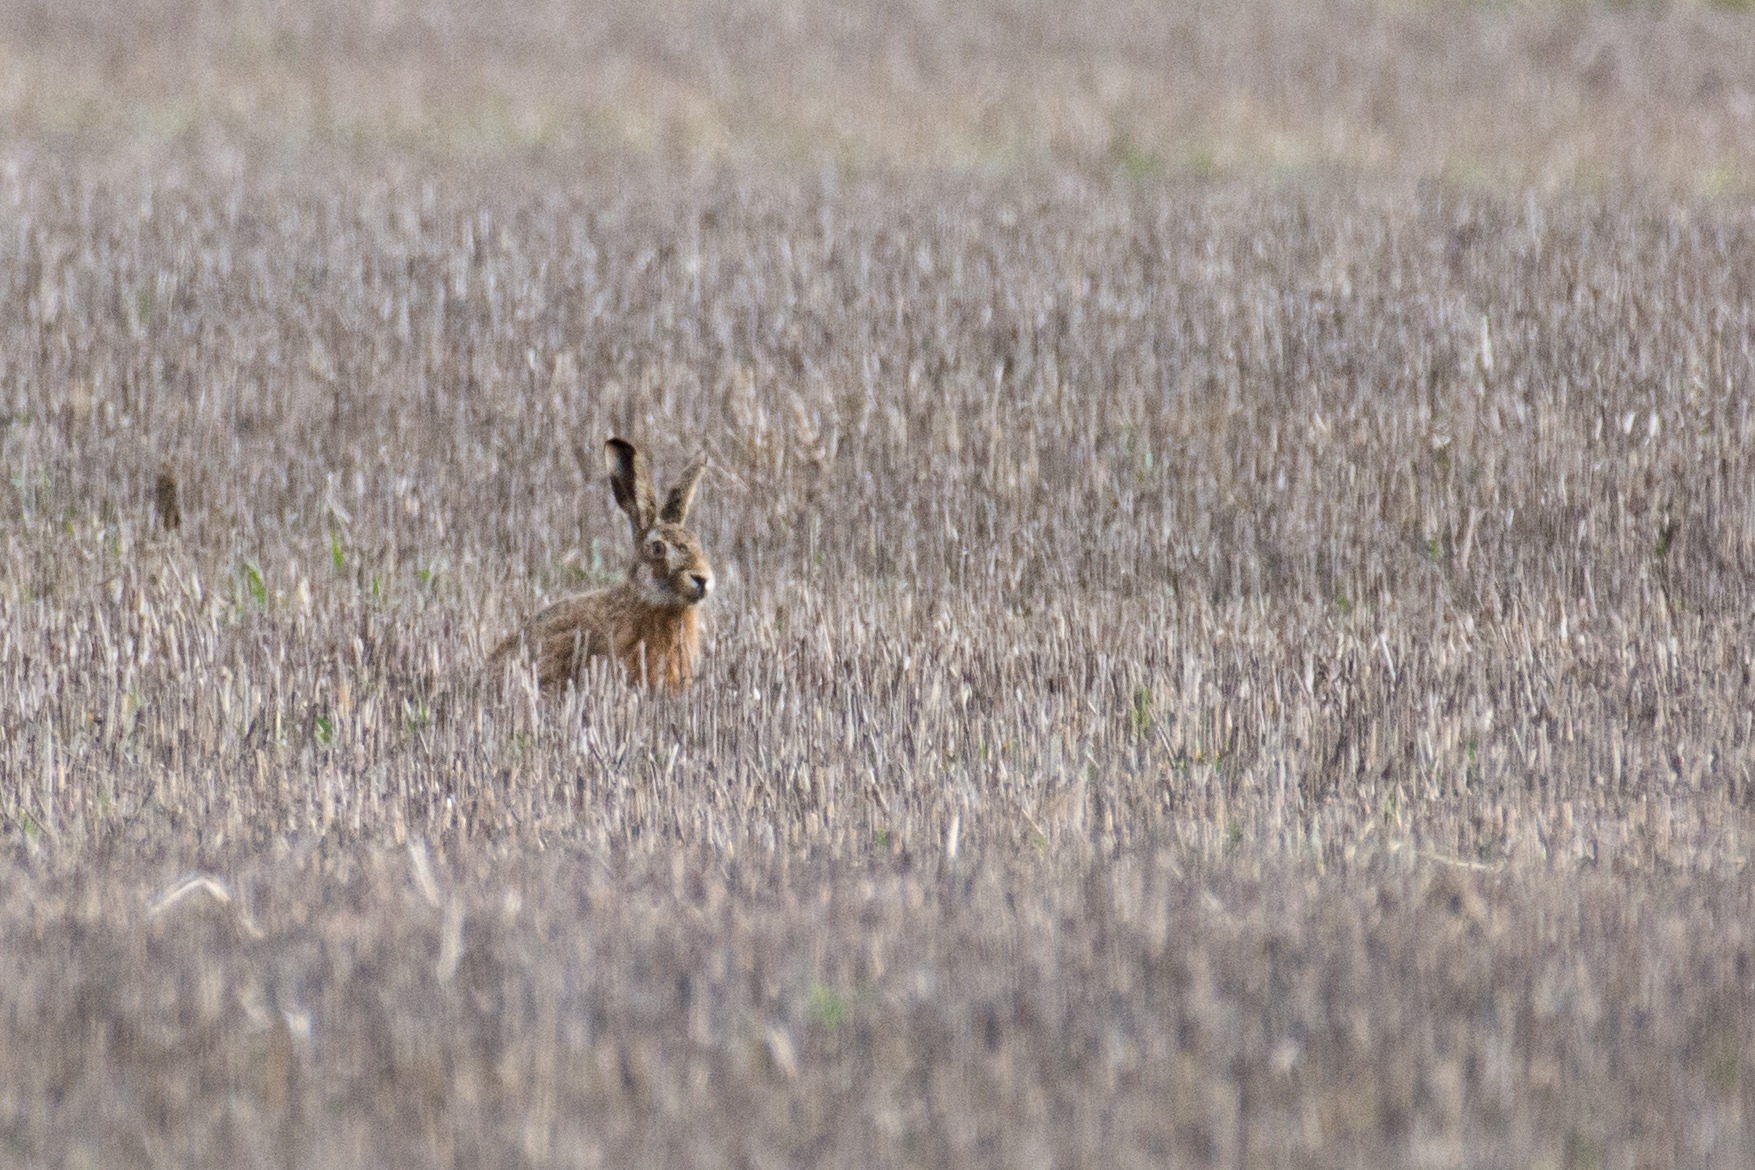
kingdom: Animalia
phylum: Chordata
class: Mammalia
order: Lagomorpha
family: Leporidae
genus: Lepus
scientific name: Lepus europaeus
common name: Hare
